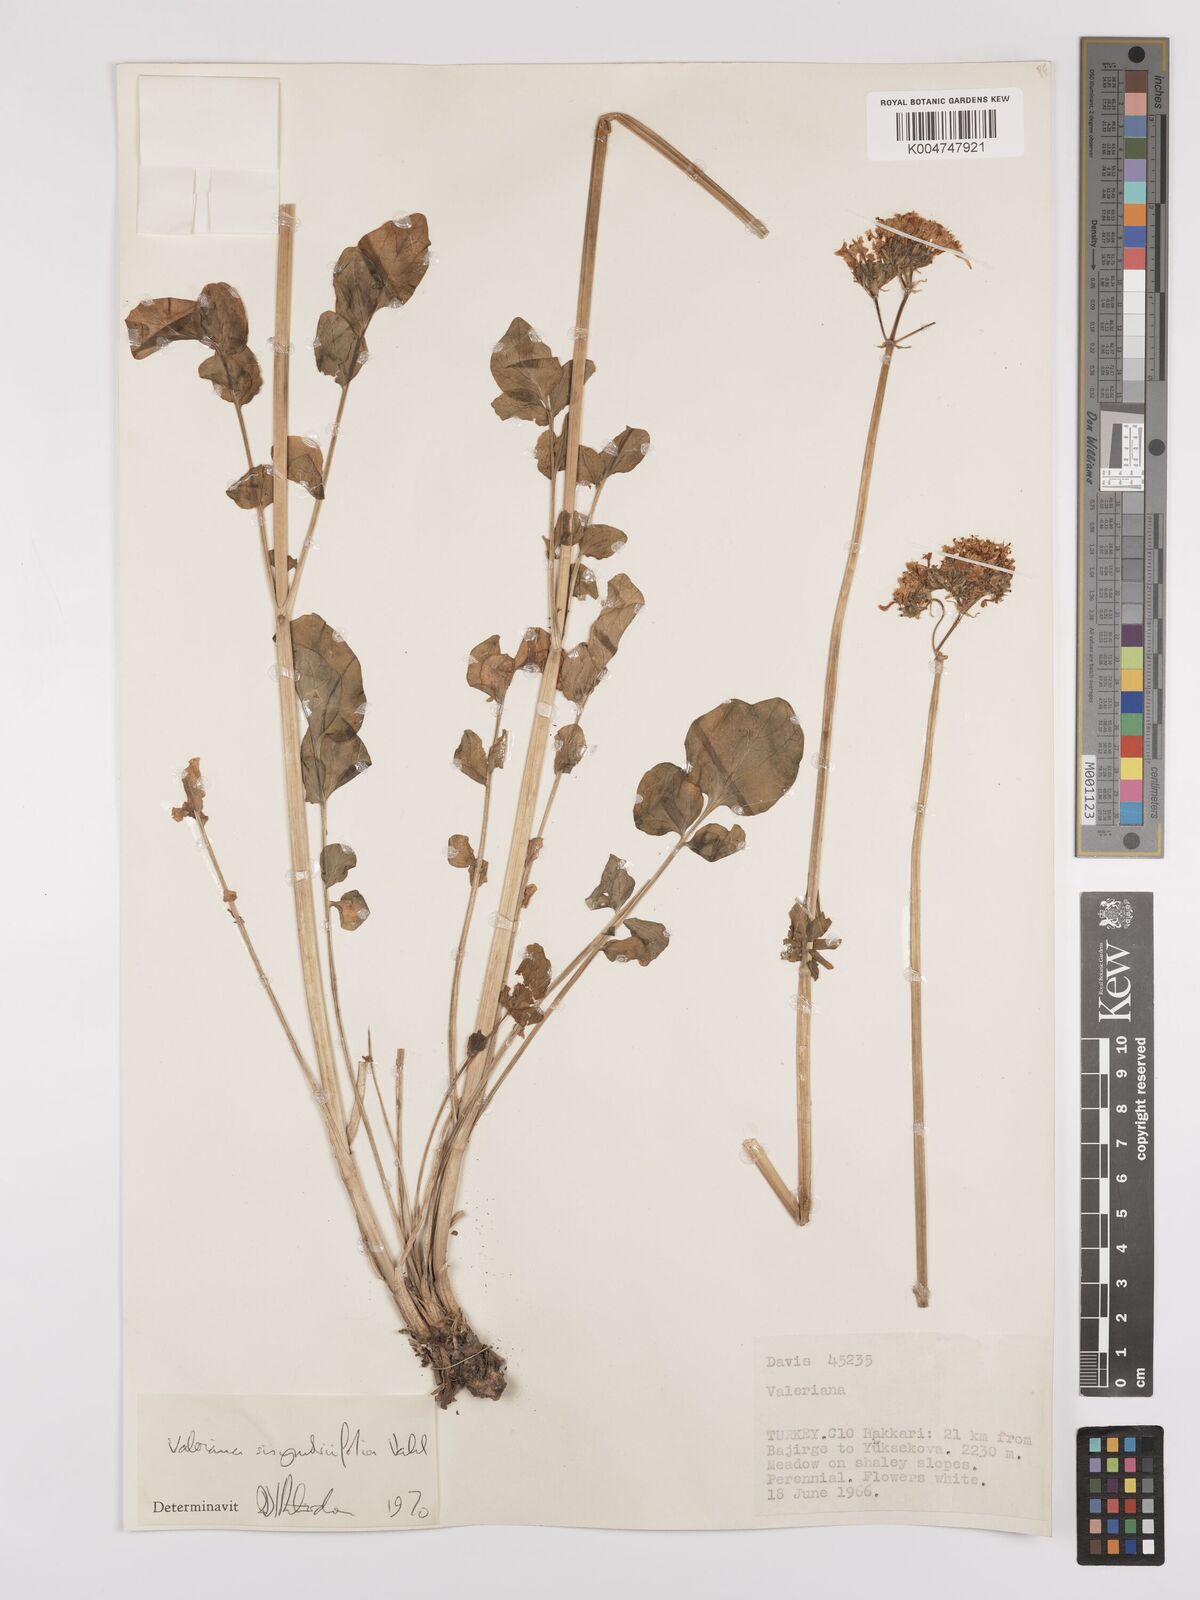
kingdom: Plantae
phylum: Tracheophyta
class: Magnoliopsida
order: Dipsacales
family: Caprifoliaceae
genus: Valeriana
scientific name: Valeriana
